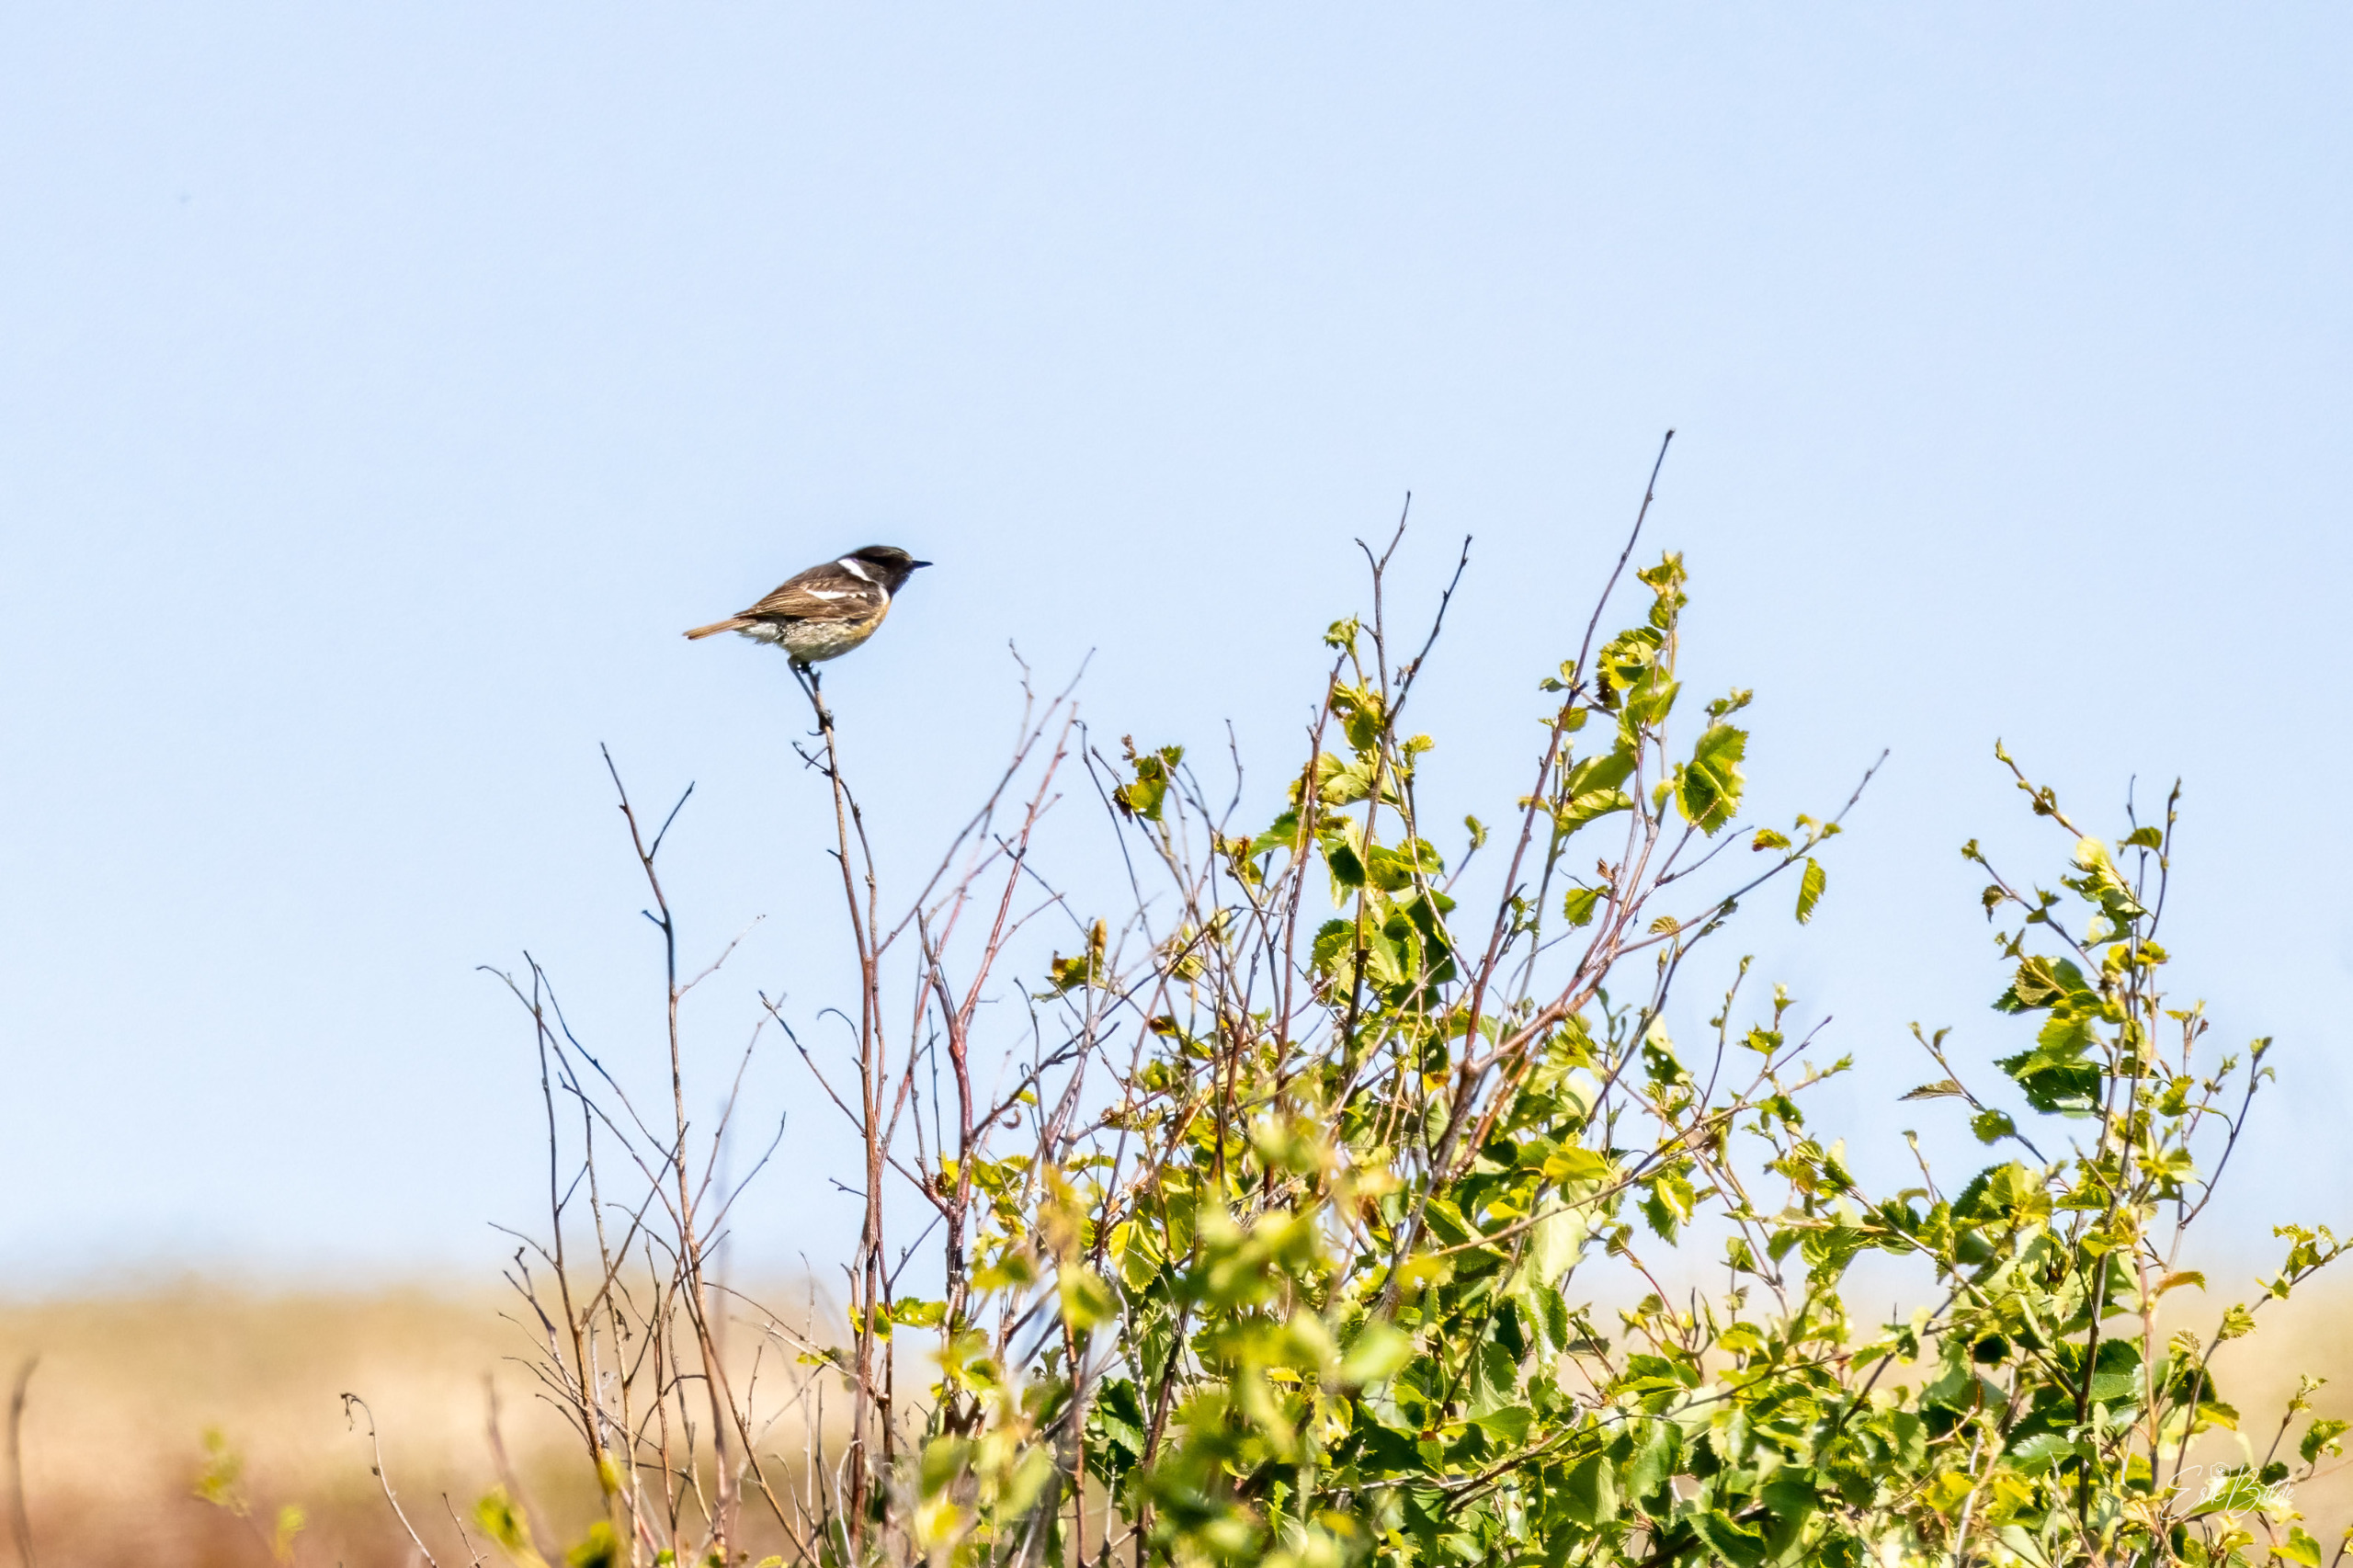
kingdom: Animalia
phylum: Chordata
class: Aves
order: Passeriformes
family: Muscicapidae
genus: Saxicola
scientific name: Saxicola rubicola
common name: Sortstrubet bynkefugl
